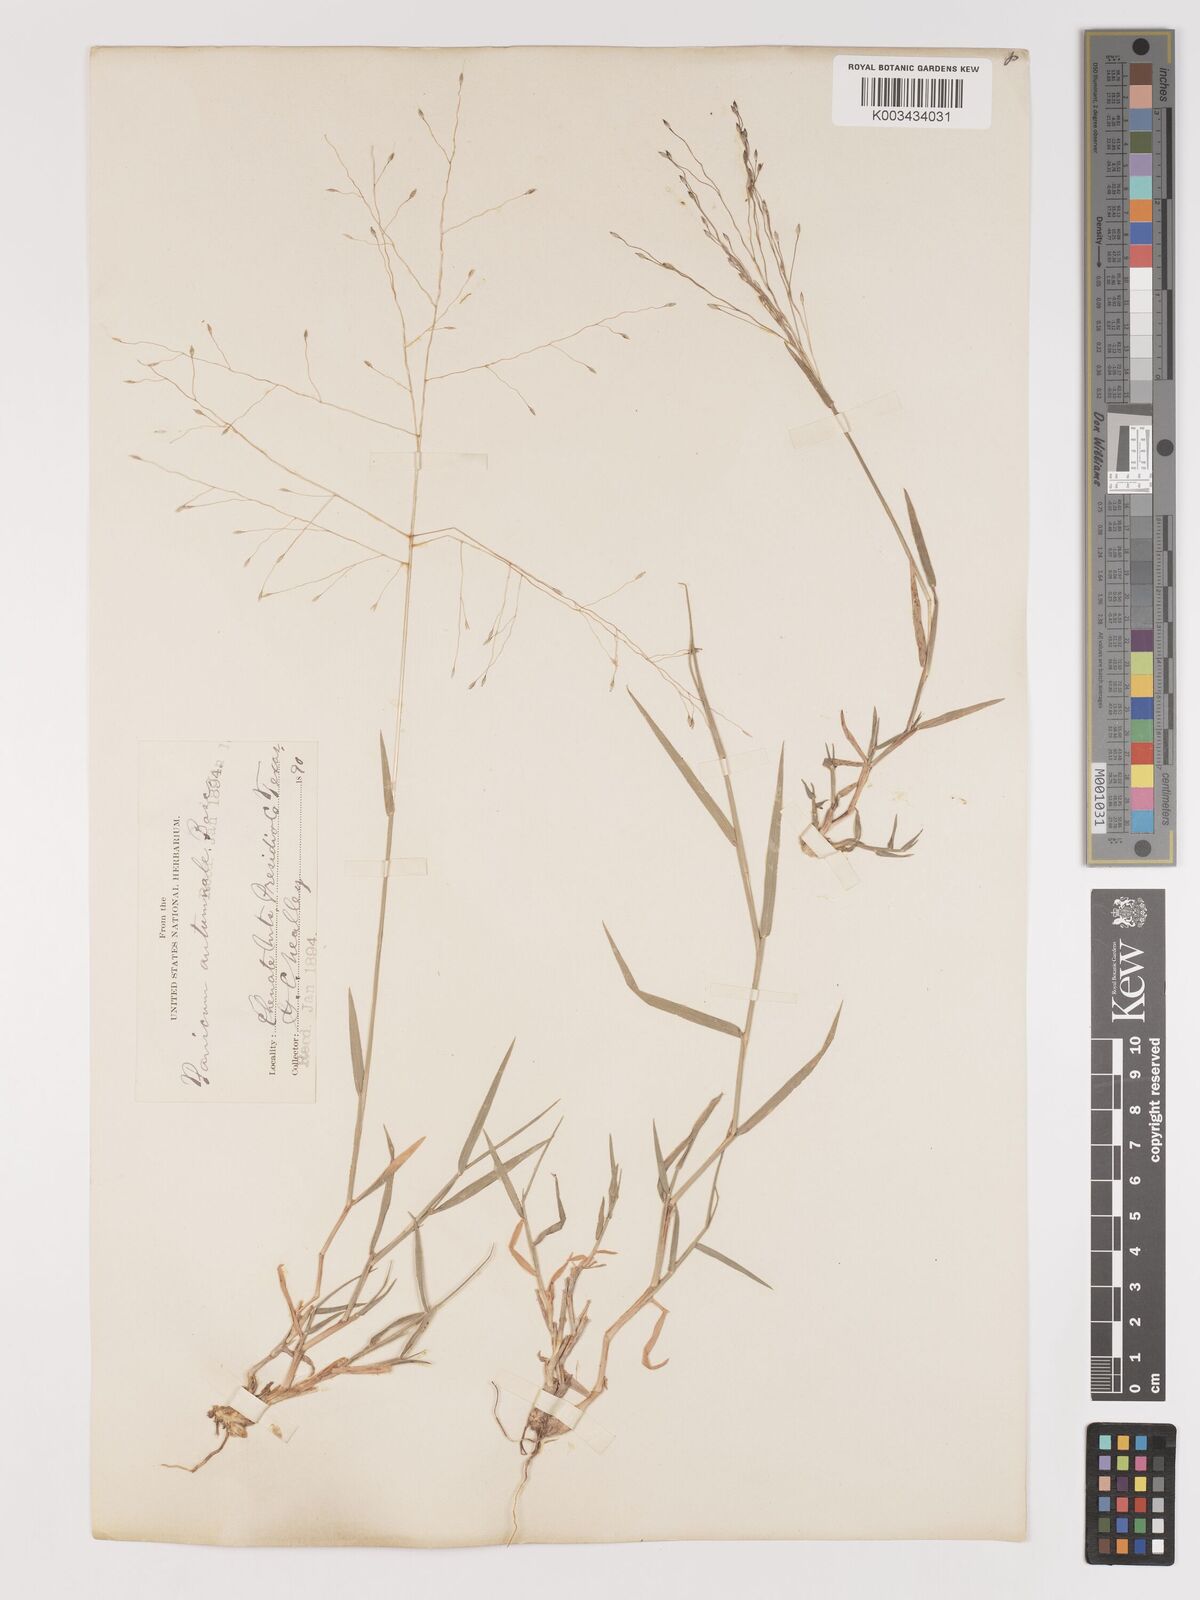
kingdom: Plantae
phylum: Tracheophyta
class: Liliopsida
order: Poales
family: Poaceae
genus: Digitaria
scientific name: Digitaria cognata
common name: Fall witchgrass
